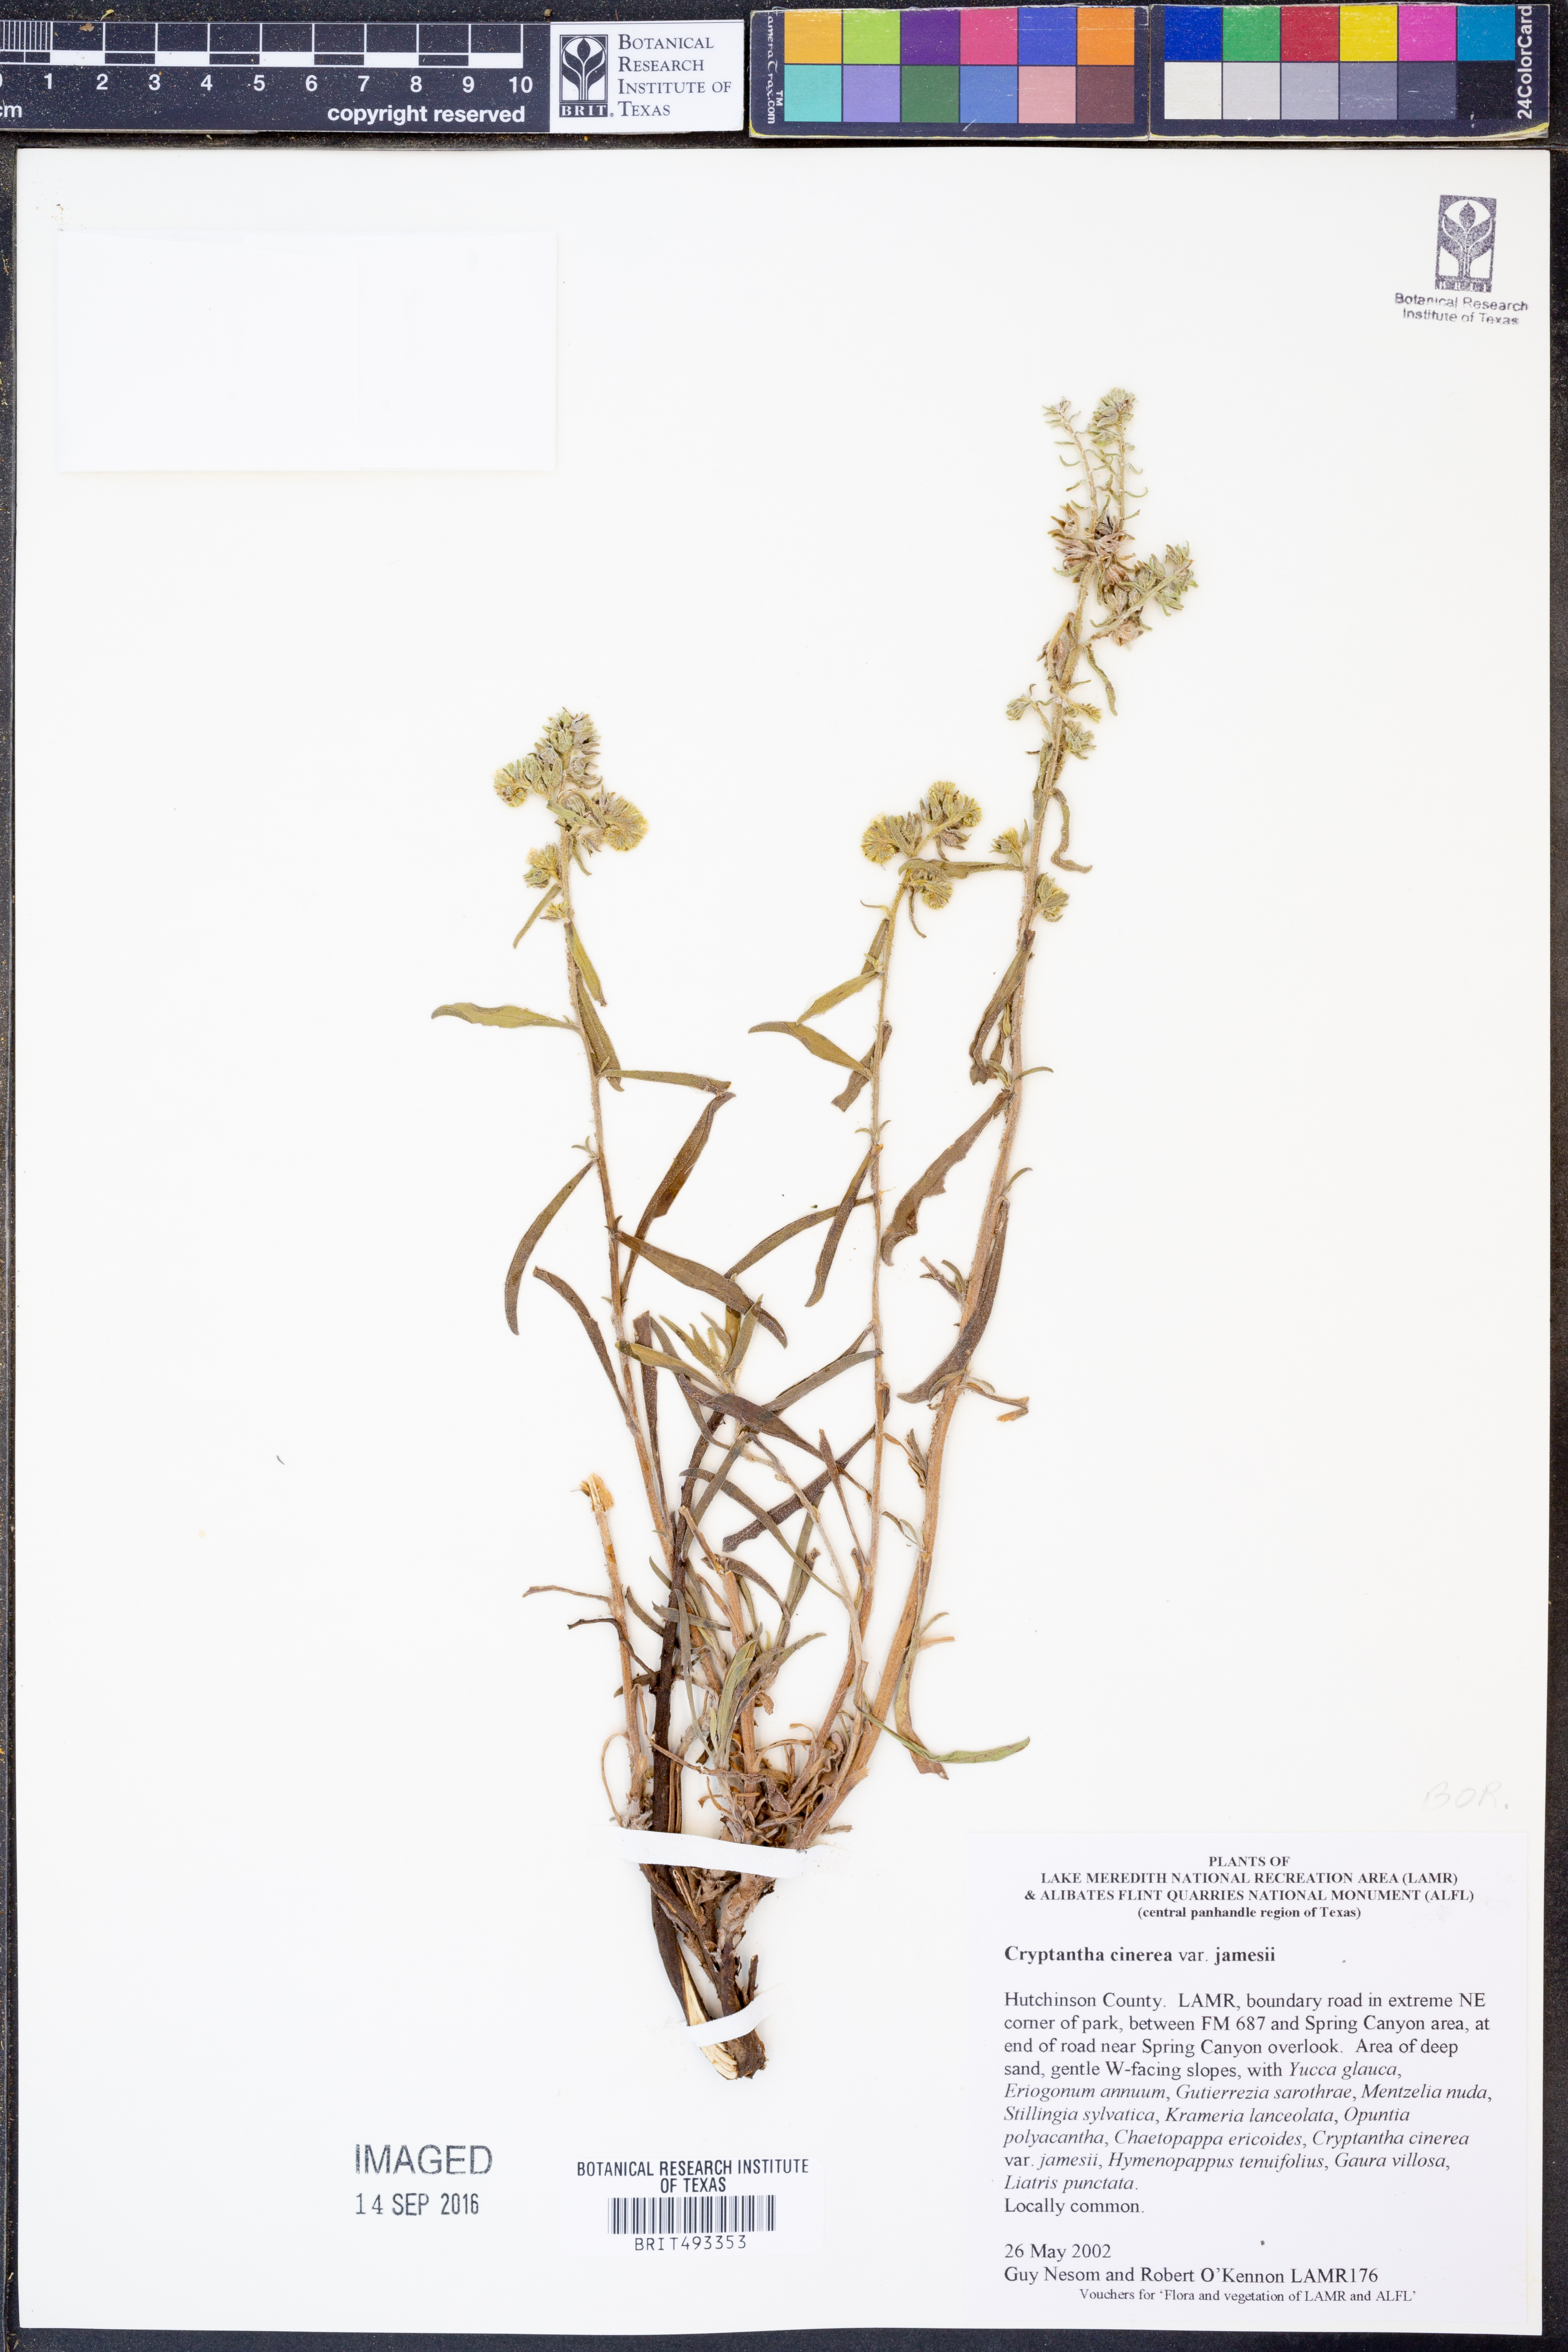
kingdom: Plantae
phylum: Tracheophyta
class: Magnoliopsida
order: Boraginales
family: Boraginaceae
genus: Oreocarya
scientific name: Oreocarya suffruticosa
